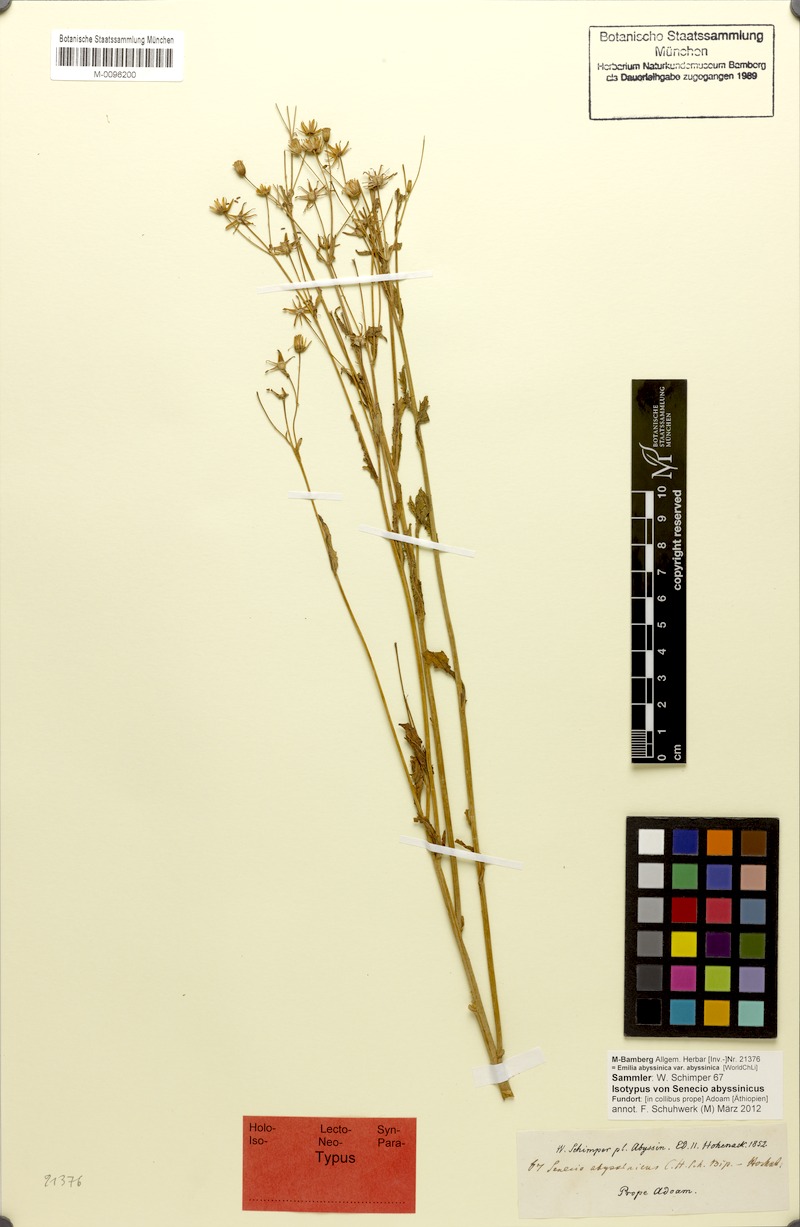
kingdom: Plantae
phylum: Tracheophyta
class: Magnoliopsida
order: Asterales
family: Asteraceae
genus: Emilia
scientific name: Emilia abyssinica
